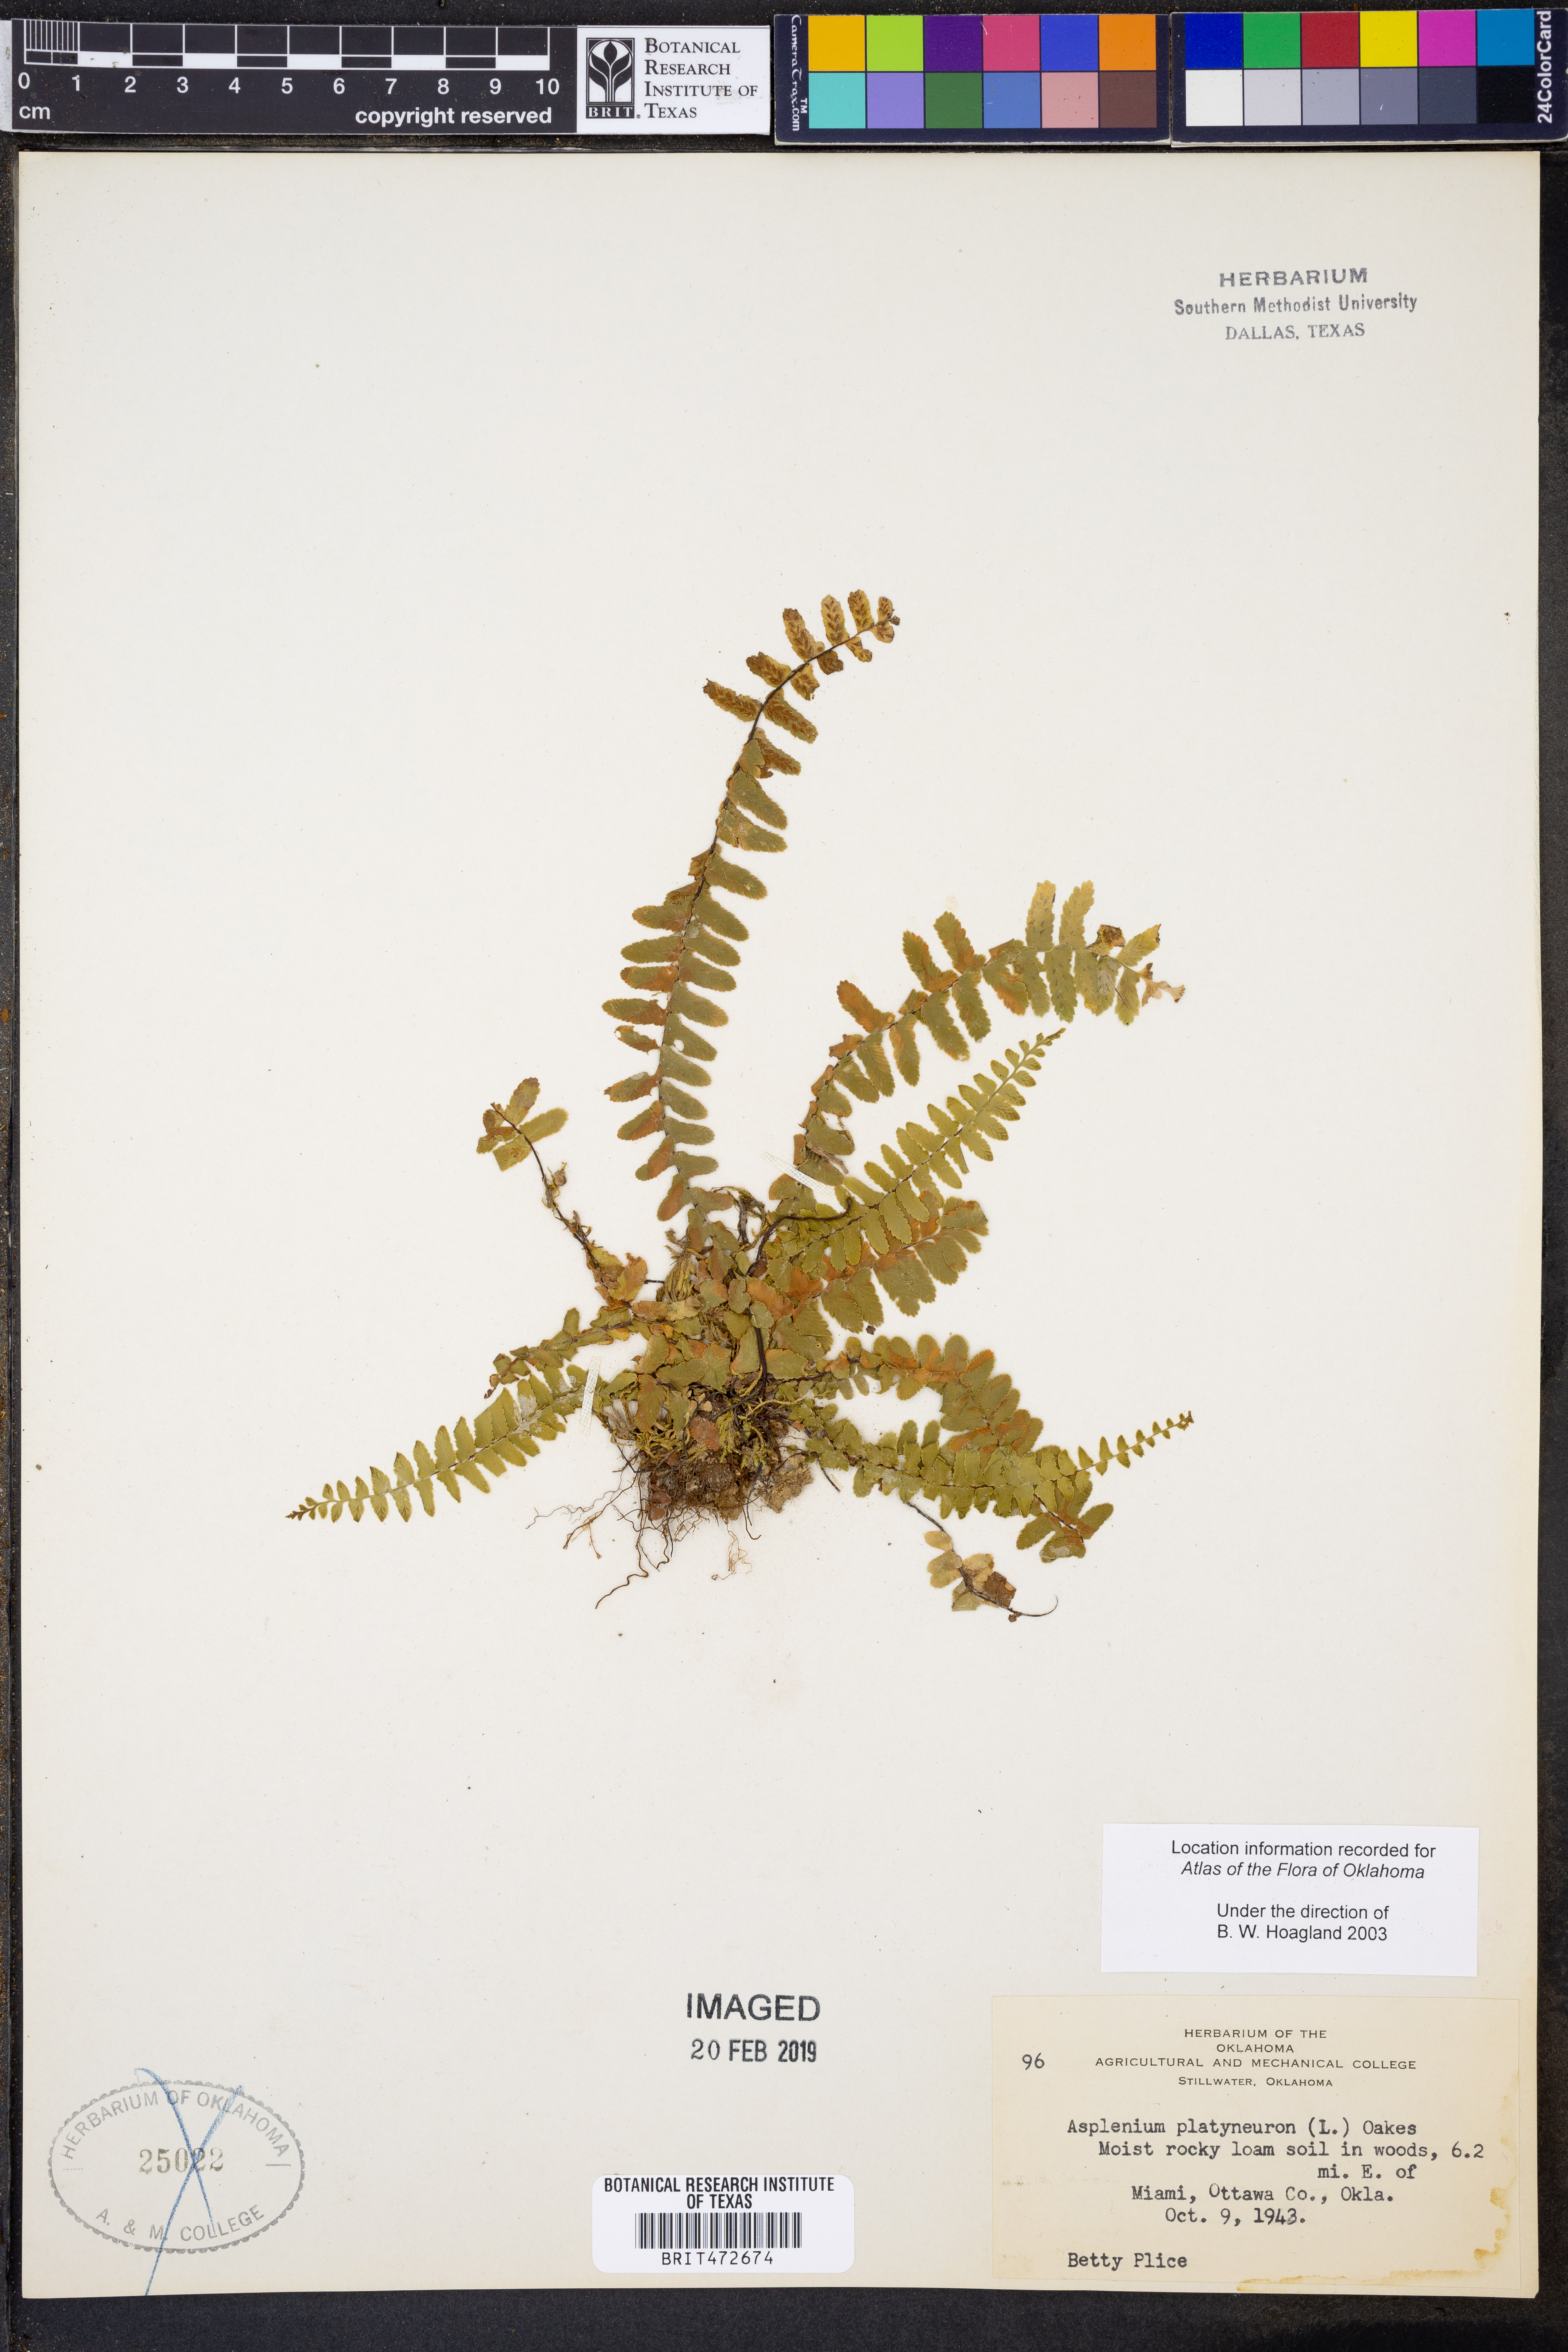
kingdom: Plantae
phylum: Tracheophyta
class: Polypodiopsida
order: Polypodiales
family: Aspleniaceae
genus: Asplenium
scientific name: Asplenium platyneuron
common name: Ebony spleenwort
